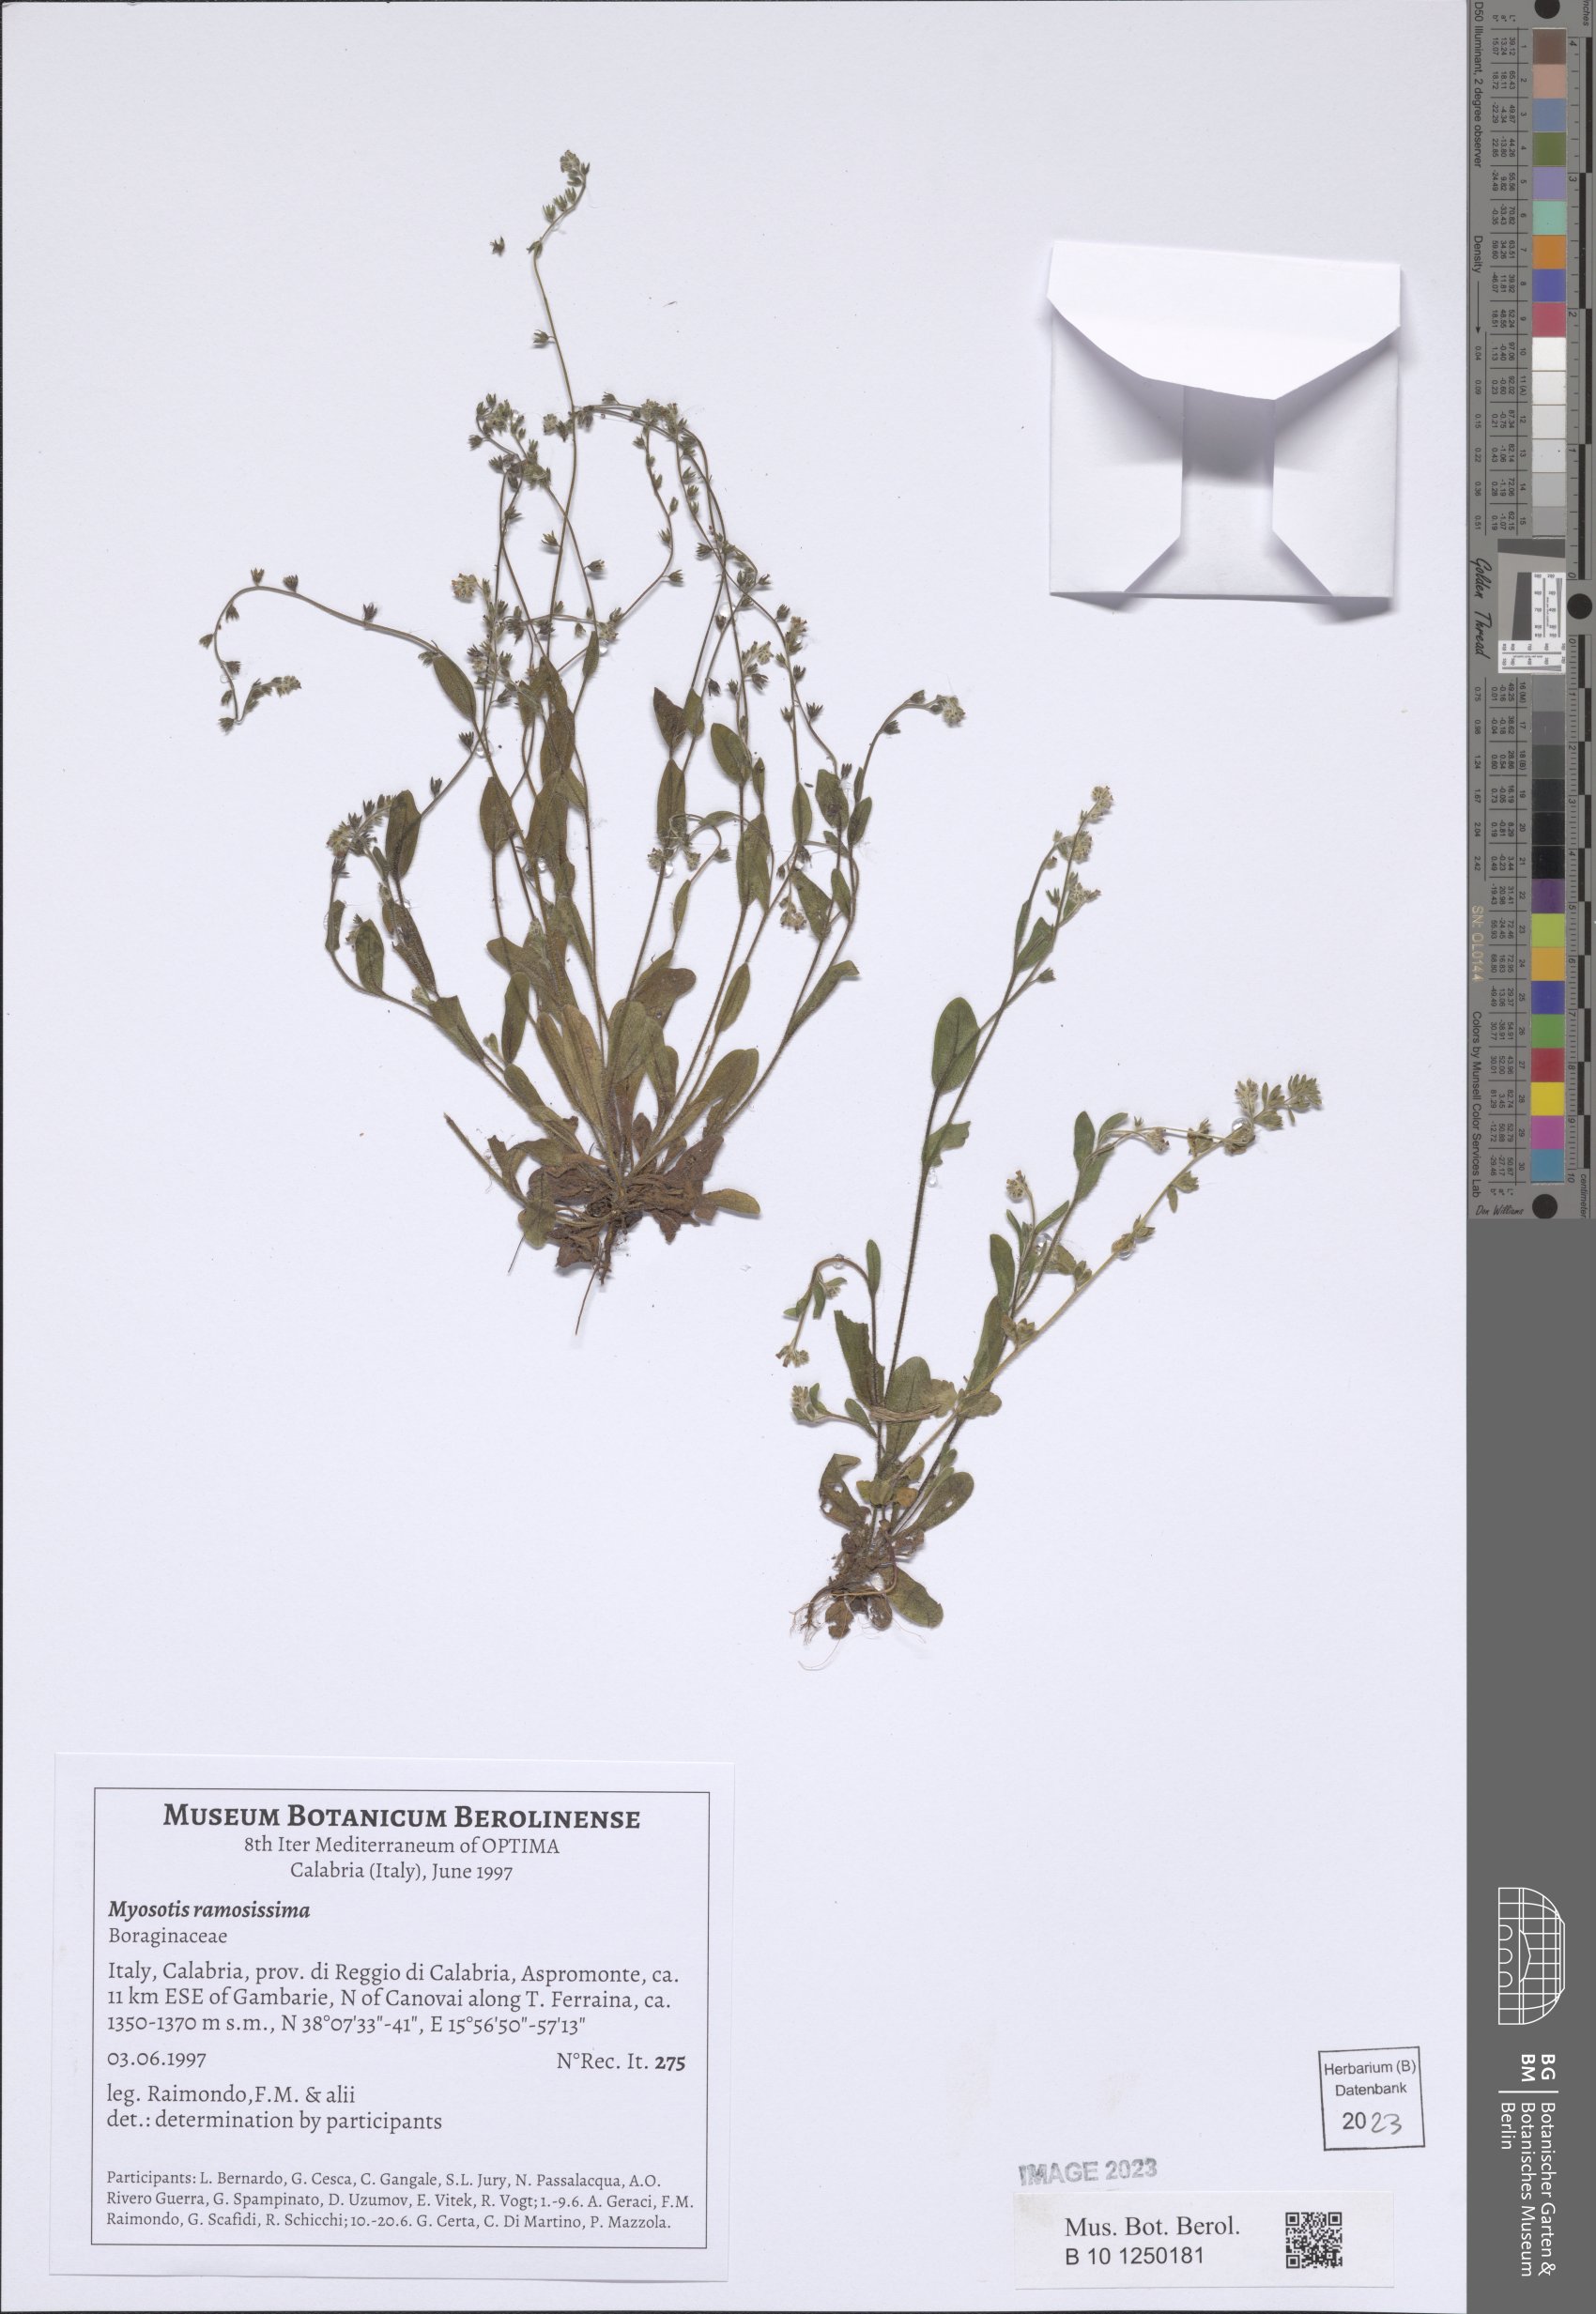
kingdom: Plantae
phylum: Tracheophyta
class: Magnoliopsida
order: Boraginales
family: Boraginaceae
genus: Myosotis
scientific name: Myosotis ramosissima
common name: Early forget-me-not
